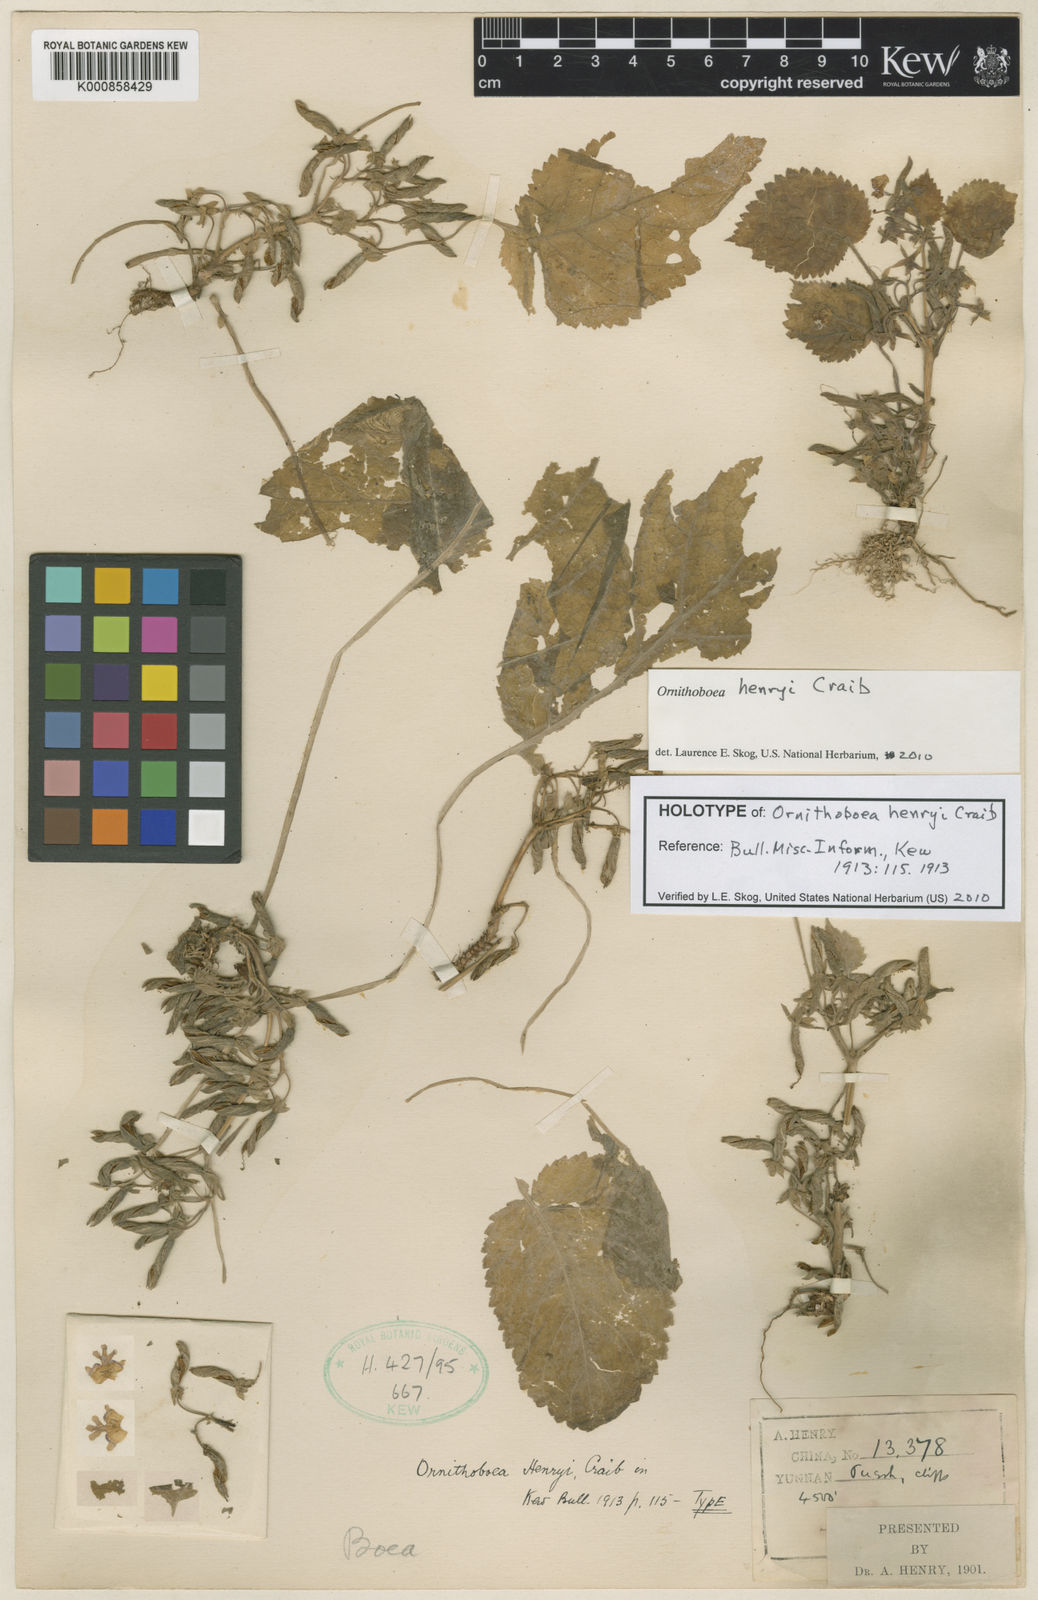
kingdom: Plantae
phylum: Tracheophyta
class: Magnoliopsida
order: Lamiales
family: Gesneriaceae
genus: Ornithoboea
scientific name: Ornithoboea henryi
